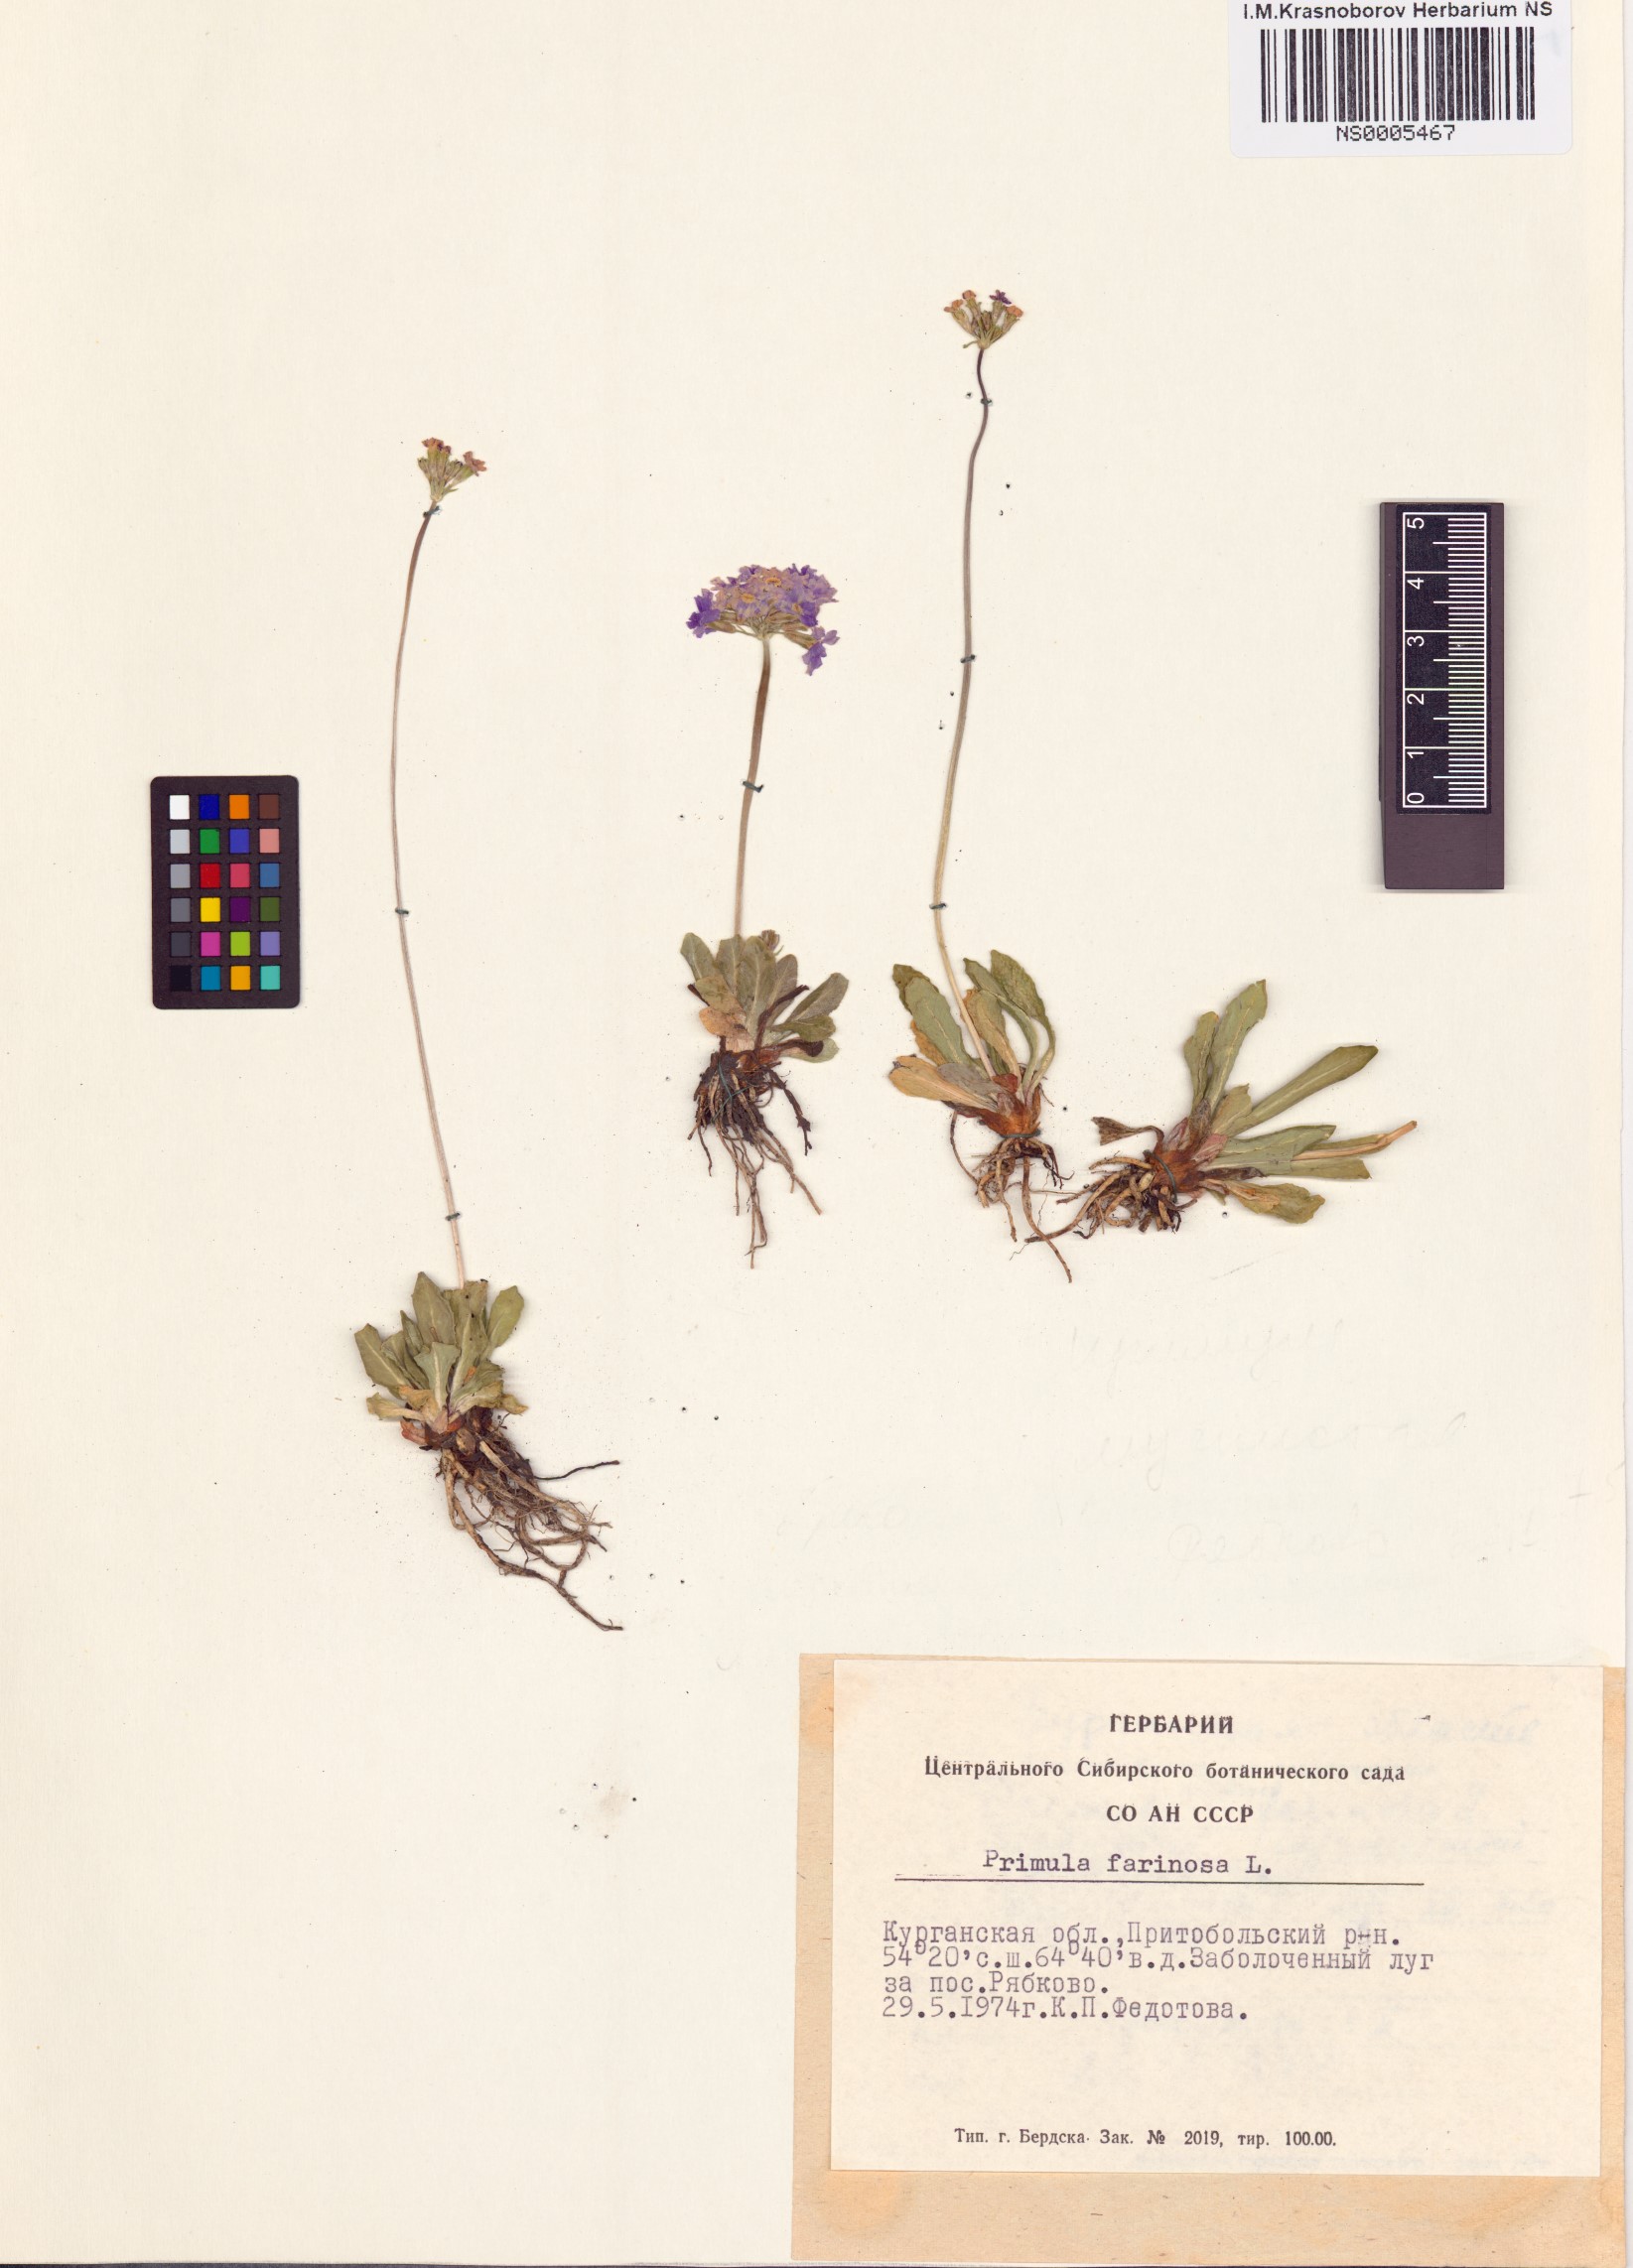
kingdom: Plantae
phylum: Tracheophyta
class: Magnoliopsida
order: Ericales
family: Primulaceae
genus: Primula
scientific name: Primula farinosa
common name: Bird's-eye primrose
